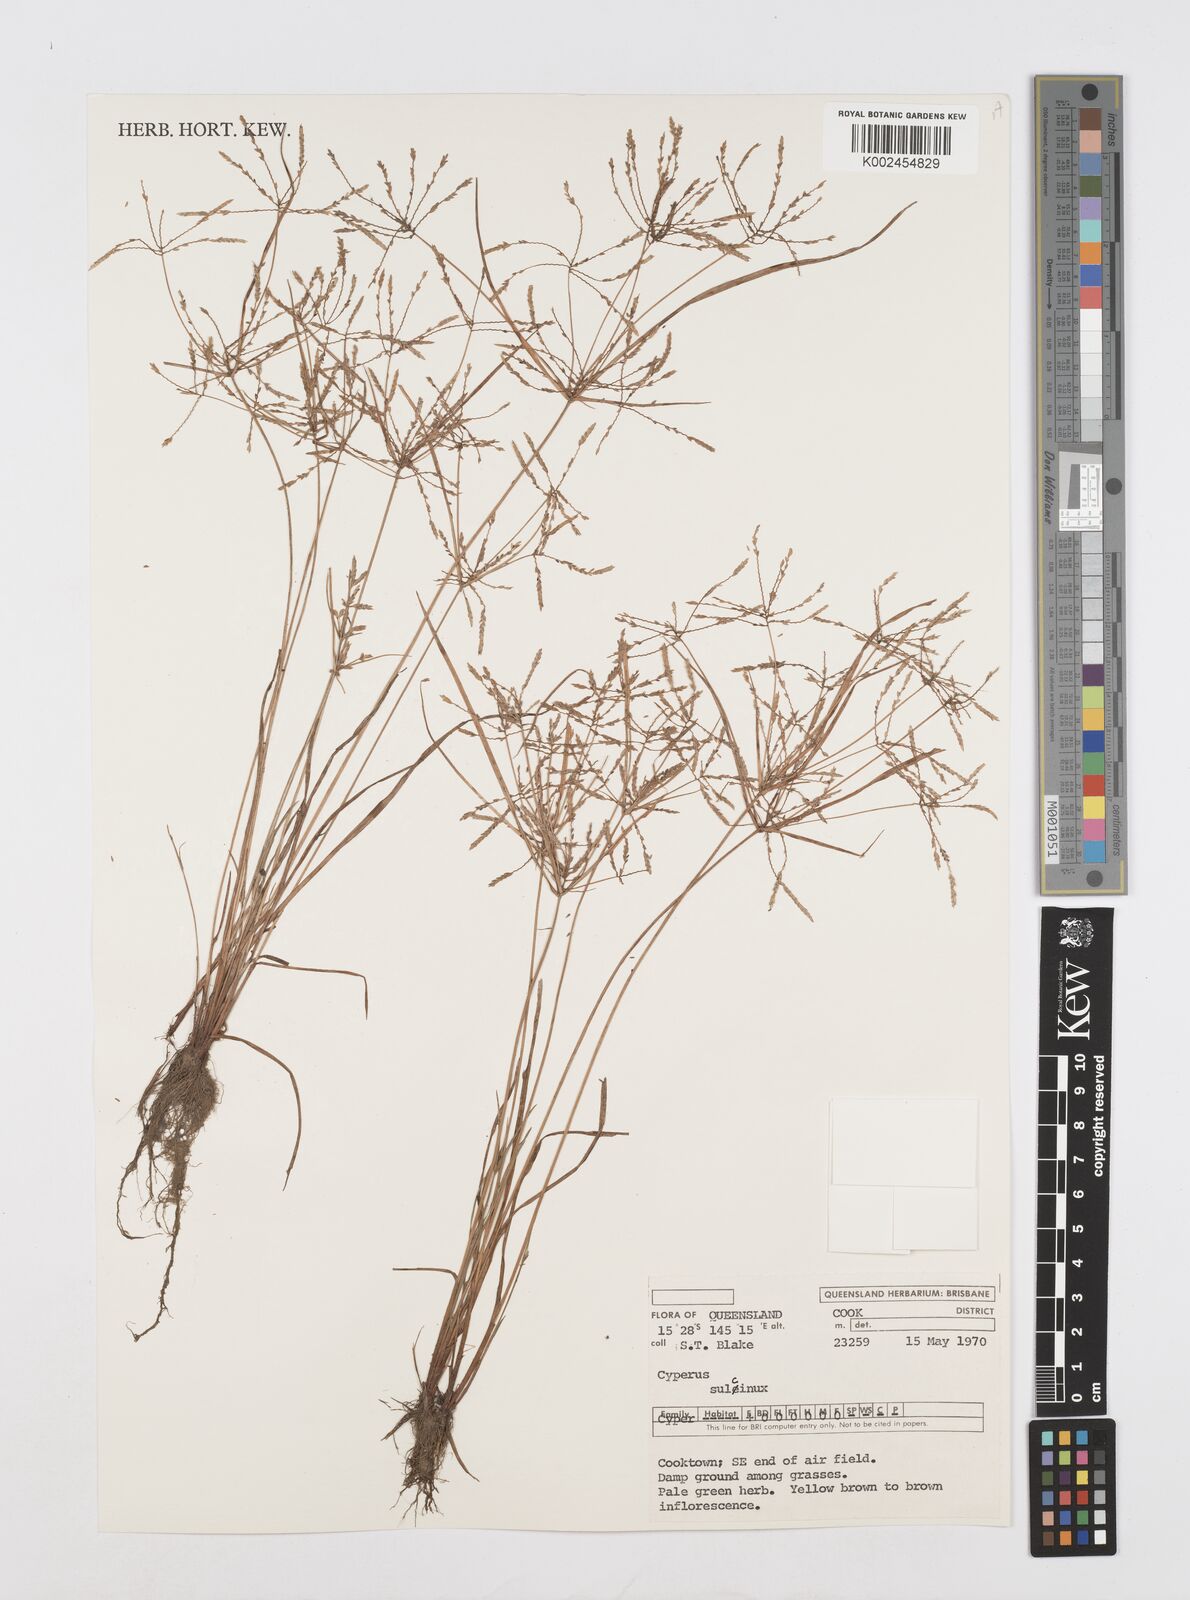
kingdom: Plantae
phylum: Tracheophyta
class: Liliopsida
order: Poales
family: Cyperaceae
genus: Cyperus
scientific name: Cyperus sulcinux
